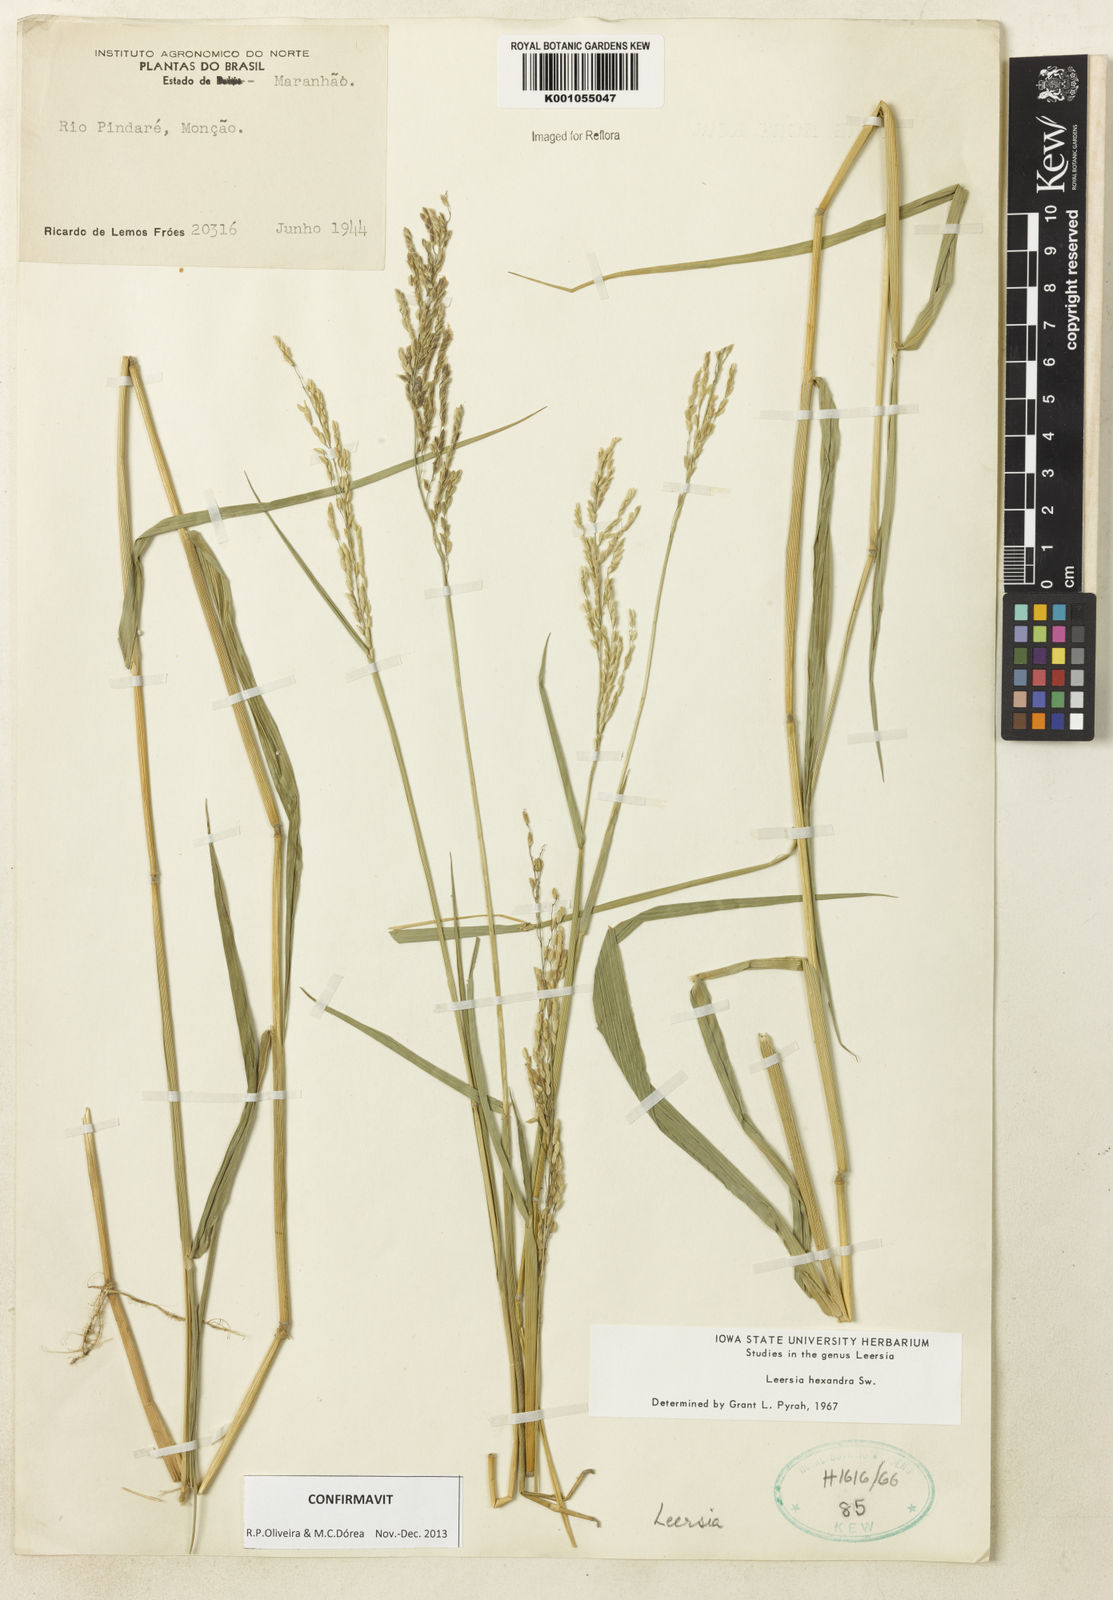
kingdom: Plantae
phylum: Tracheophyta
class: Liliopsida
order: Poales
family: Poaceae
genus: Leersia
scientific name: Leersia hexandra
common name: Southern cut grass
